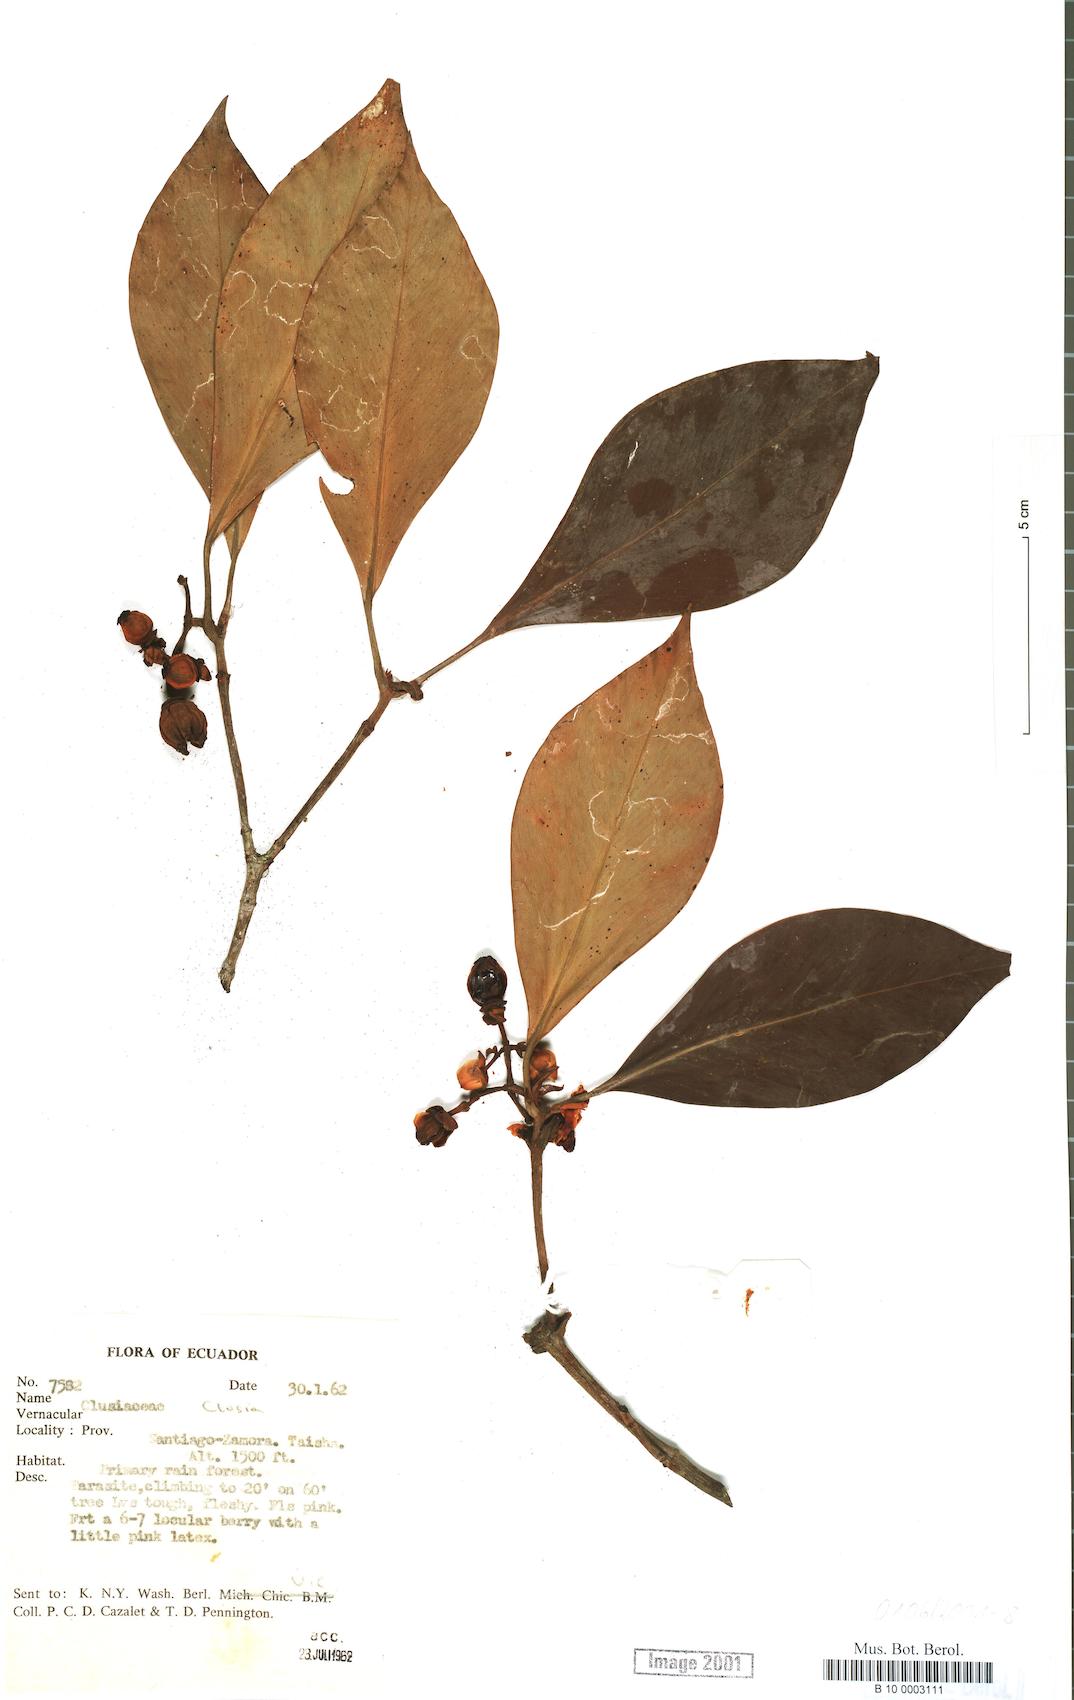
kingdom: Plantae
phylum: Tracheophyta
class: Magnoliopsida
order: Malpighiales
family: Clusiaceae
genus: Clusia
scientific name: Clusia
